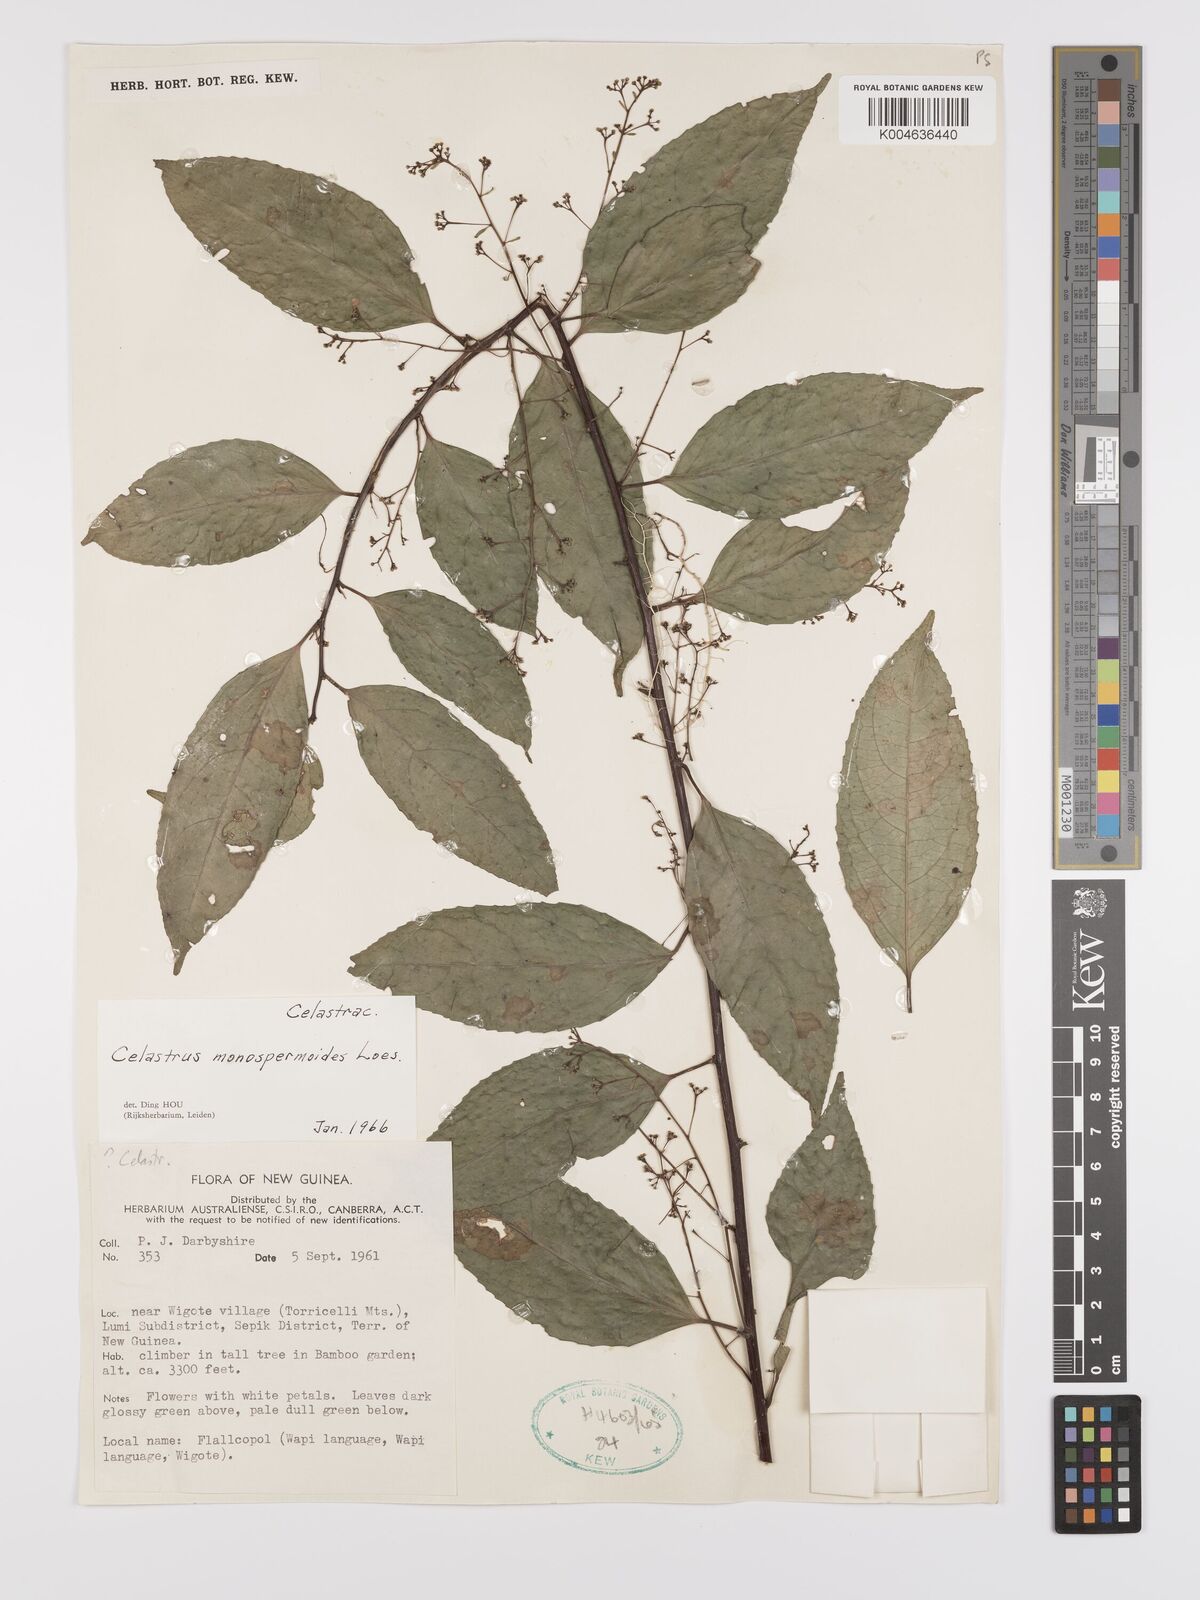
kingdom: Plantae
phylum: Tracheophyta
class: Magnoliopsida
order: Celastrales
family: Celastraceae
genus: Celastrus
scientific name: Celastrus monospermoides
